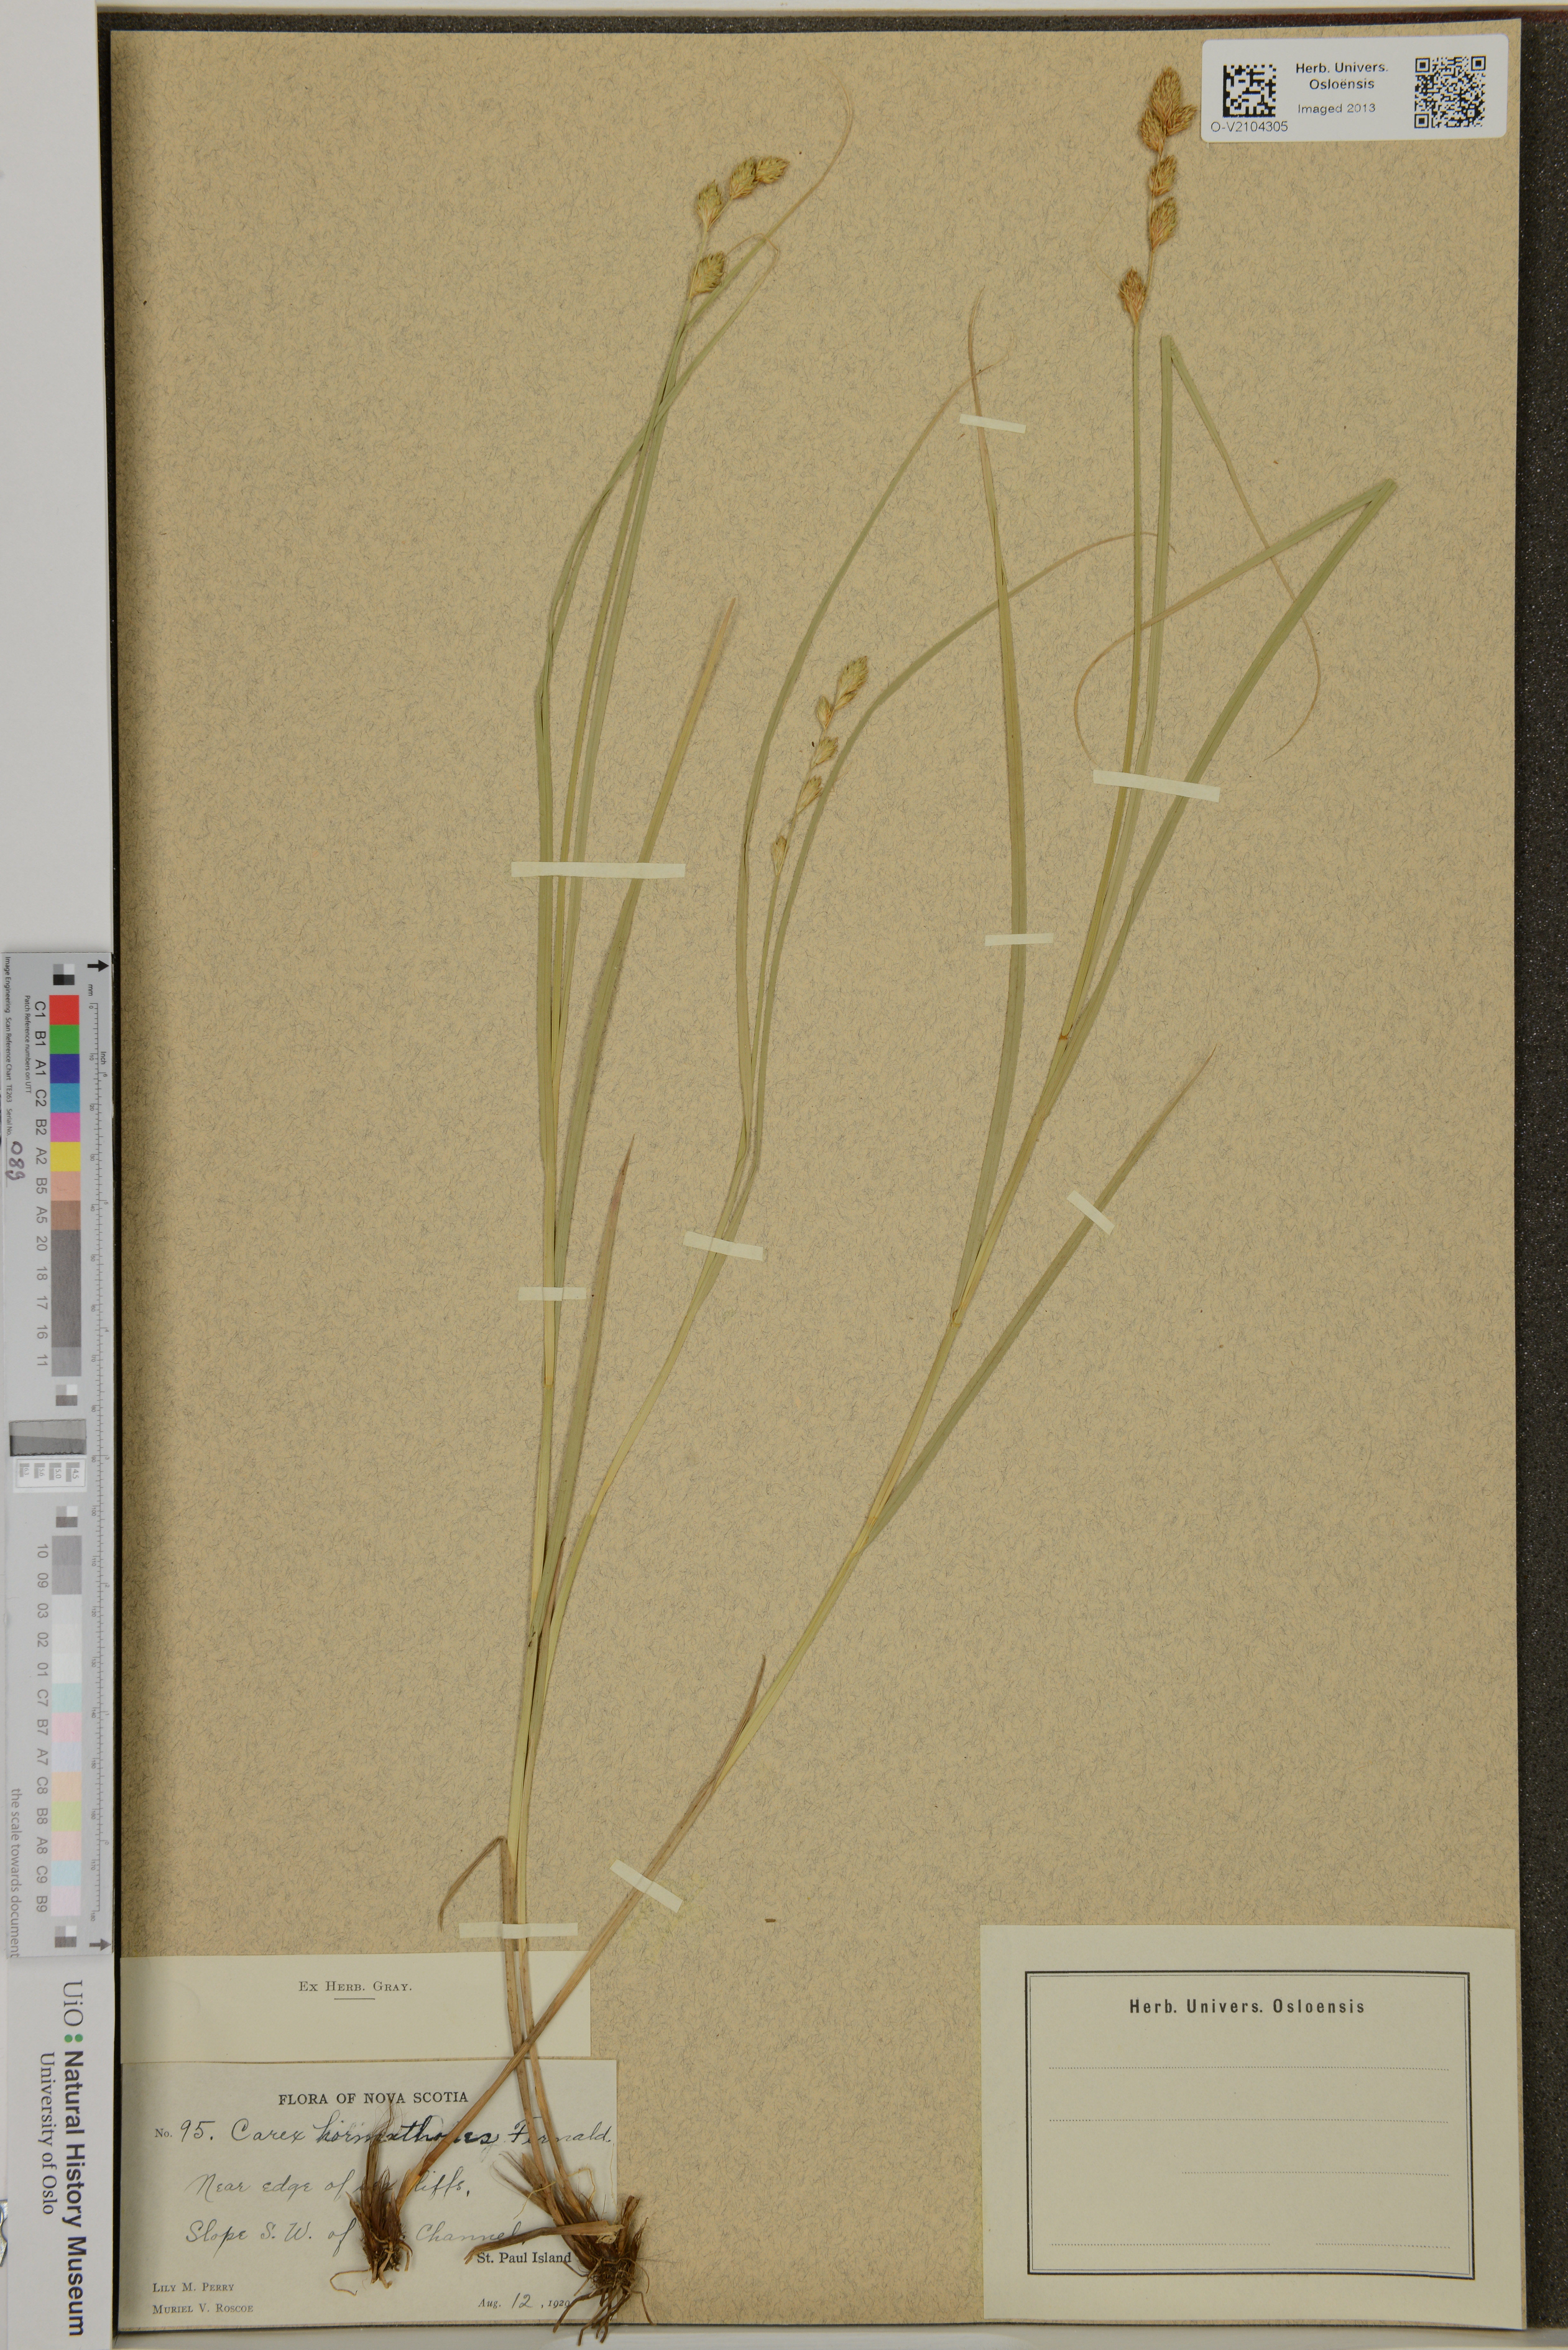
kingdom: Plantae
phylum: Tracheophyta
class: Liliopsida
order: Poales
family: Cyperaceae
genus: Carex
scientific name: Carex hormathodes
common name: Marsh straw sedge
